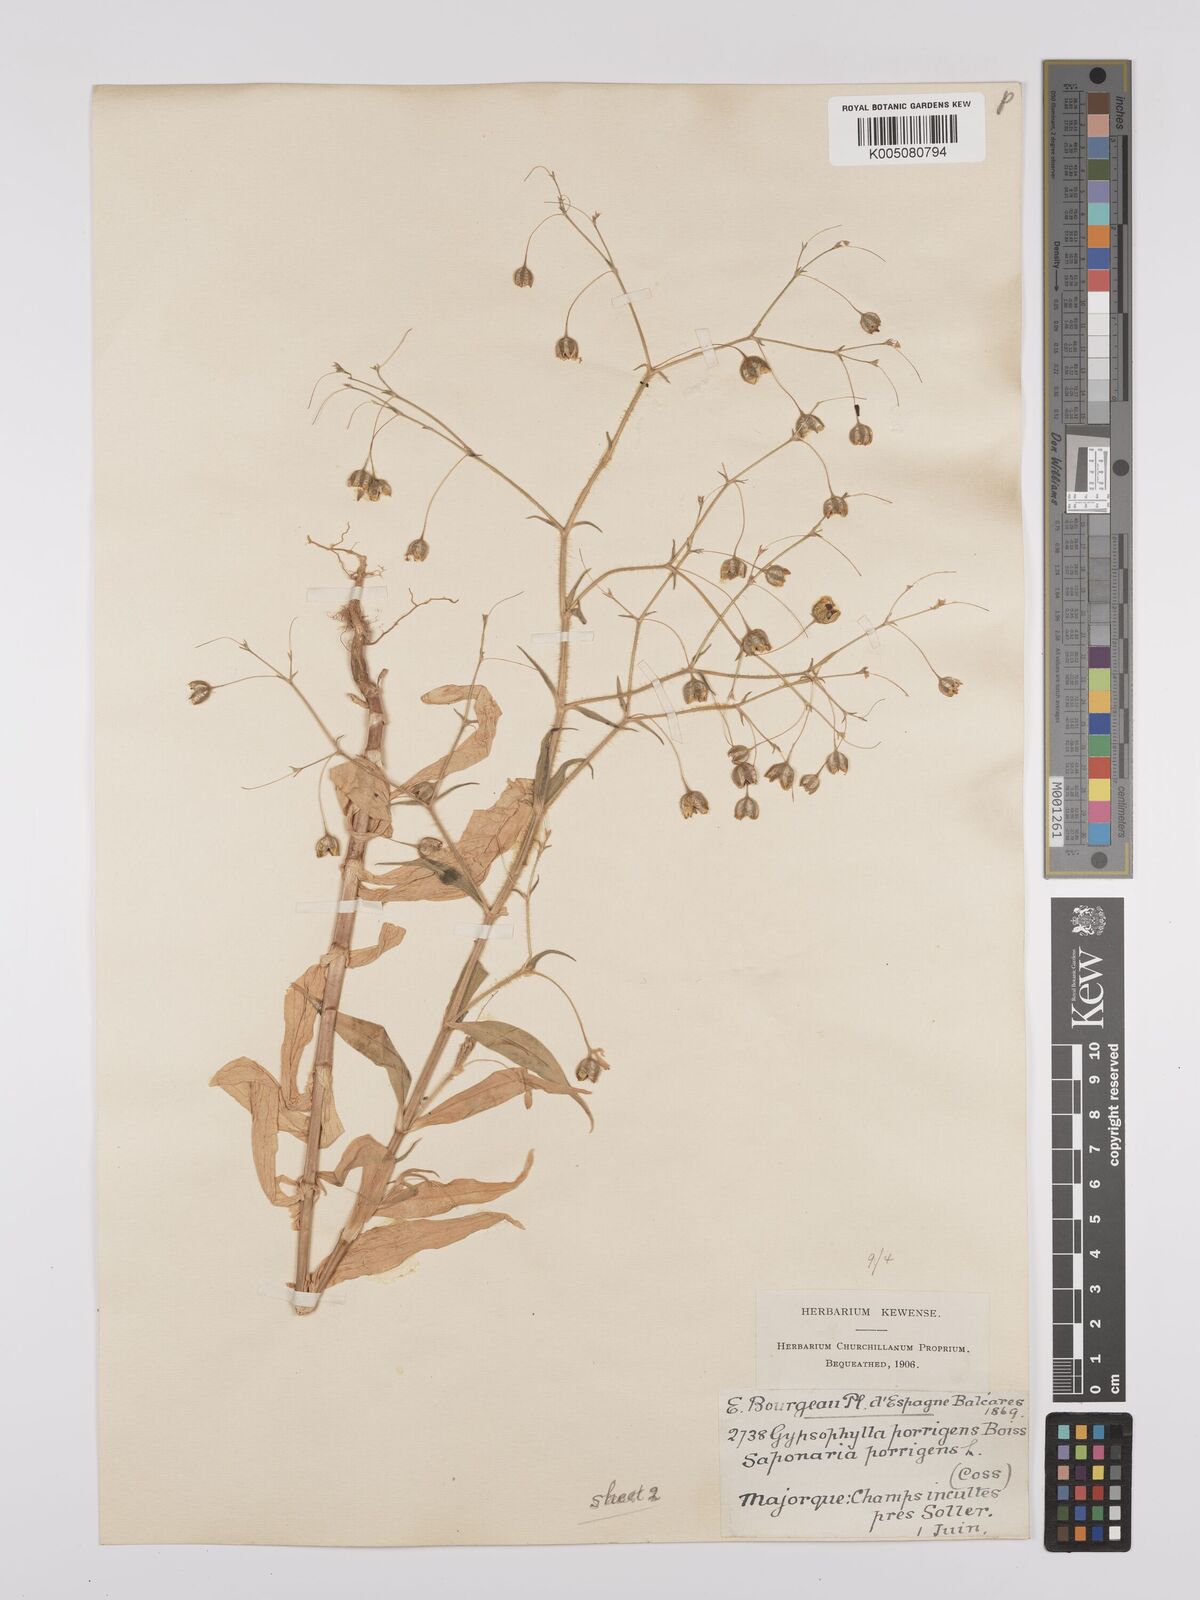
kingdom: Plantae
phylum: Tracheophyta
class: Magnoliopsida
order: Caryophyllales
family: Caryophyllaceae
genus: Gypsophila
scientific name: Gypsophila pilosa
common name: Turkish baby's-breath
